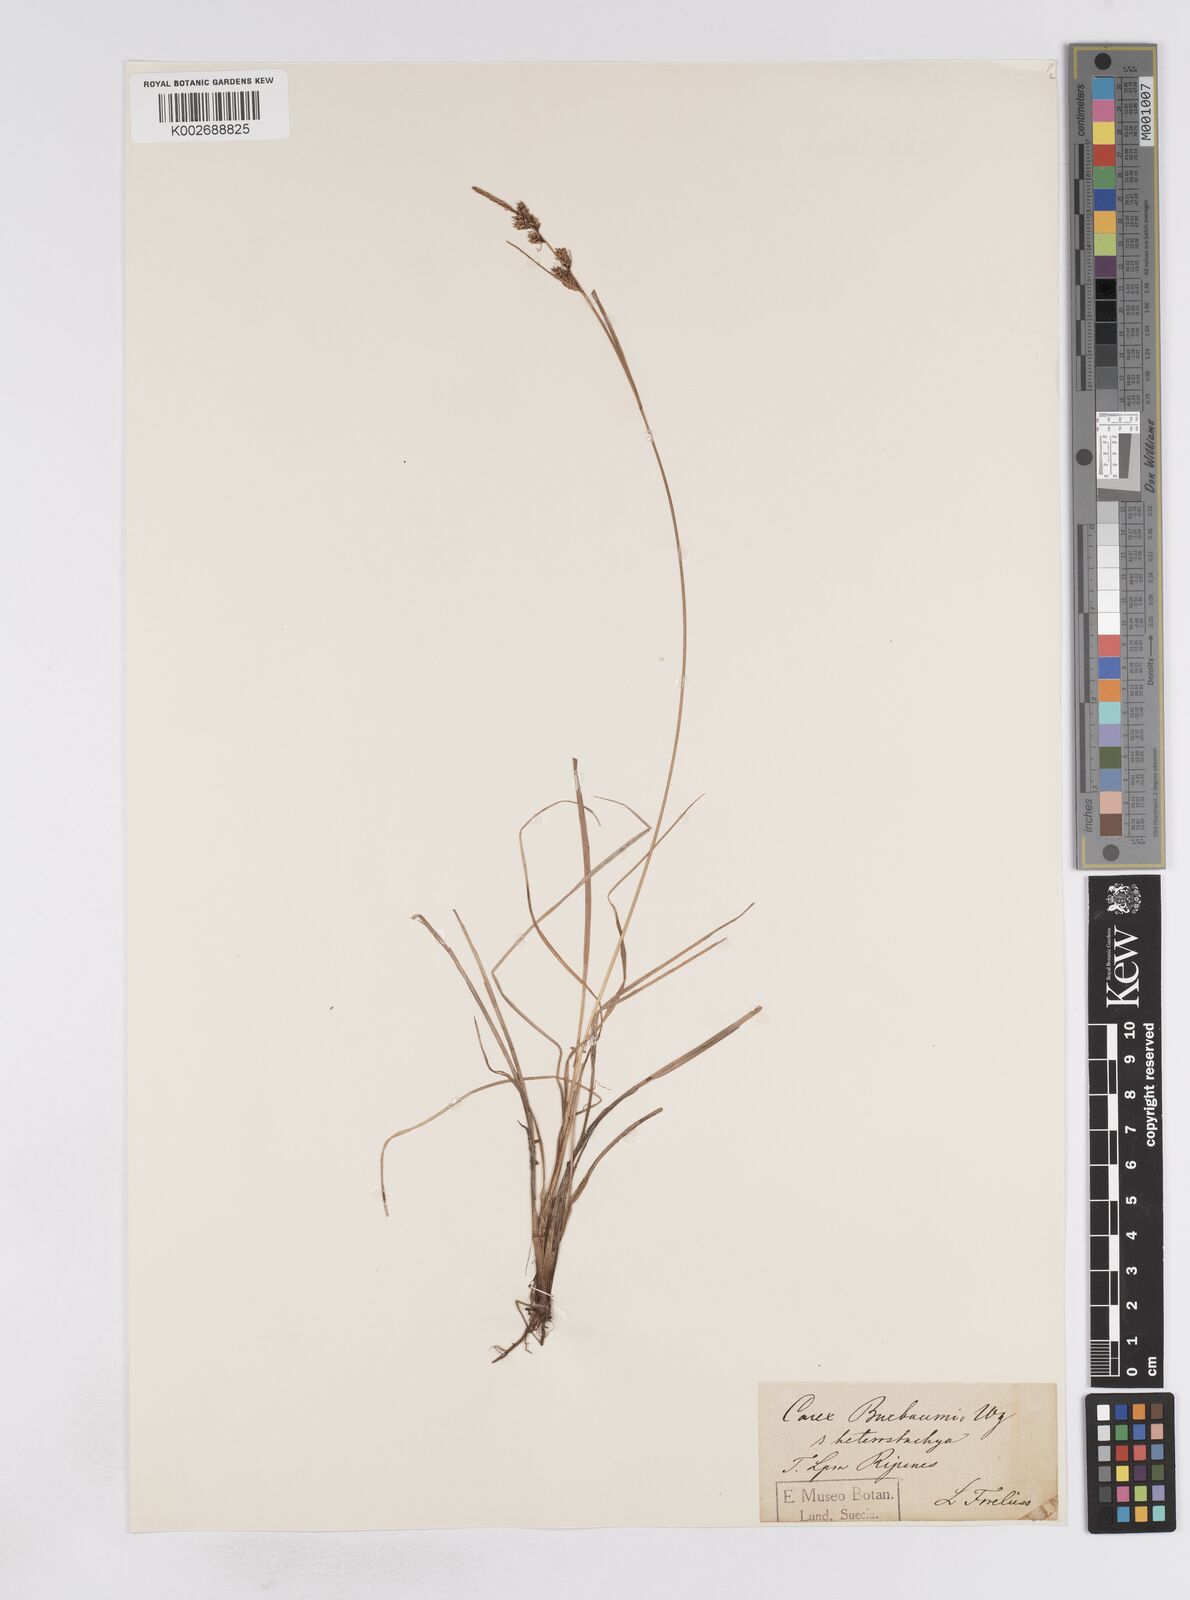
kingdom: Plantae
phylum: Tracheophyta
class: Liliopsida
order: Poales
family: Cyperaceae
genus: Carex
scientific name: Carex buxbaumii
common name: Club sedge
